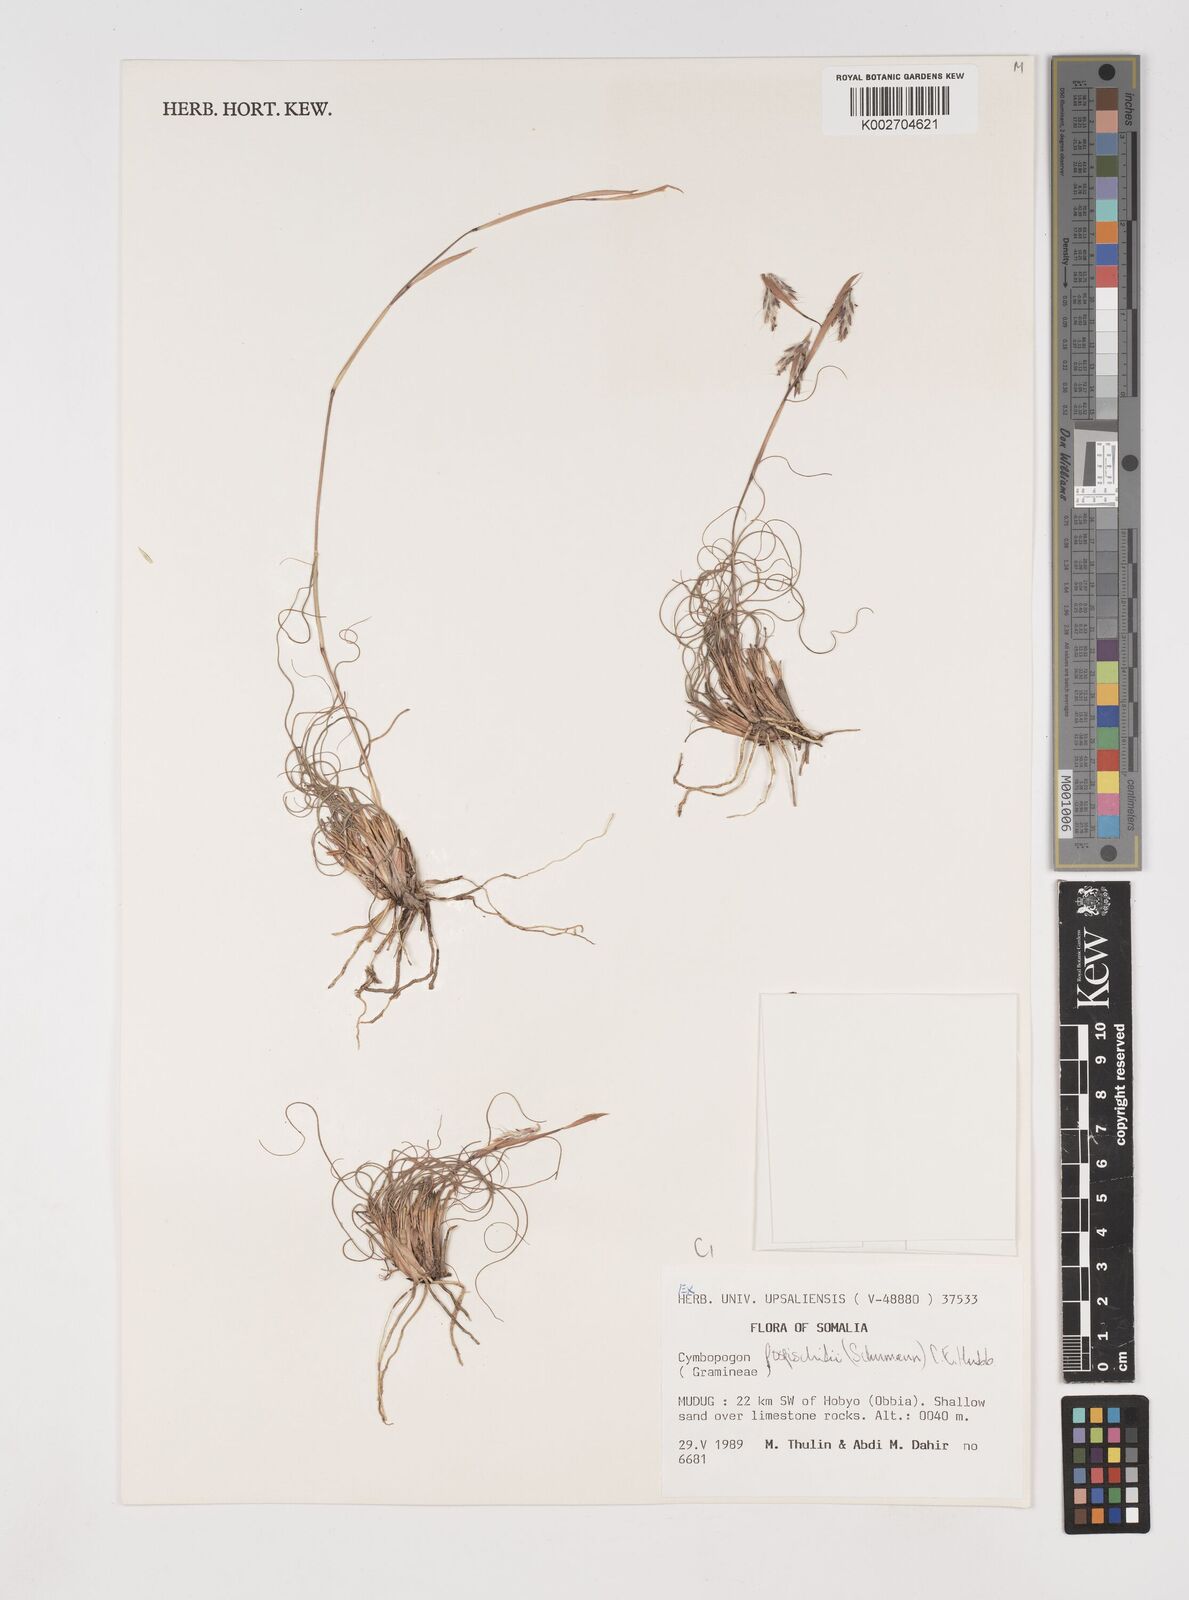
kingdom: Plantae
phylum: Tracheophyta
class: Liliopsida
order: Poales
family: Poaceae
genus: Cymbopogon
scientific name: Cymbopogon pospischilii
